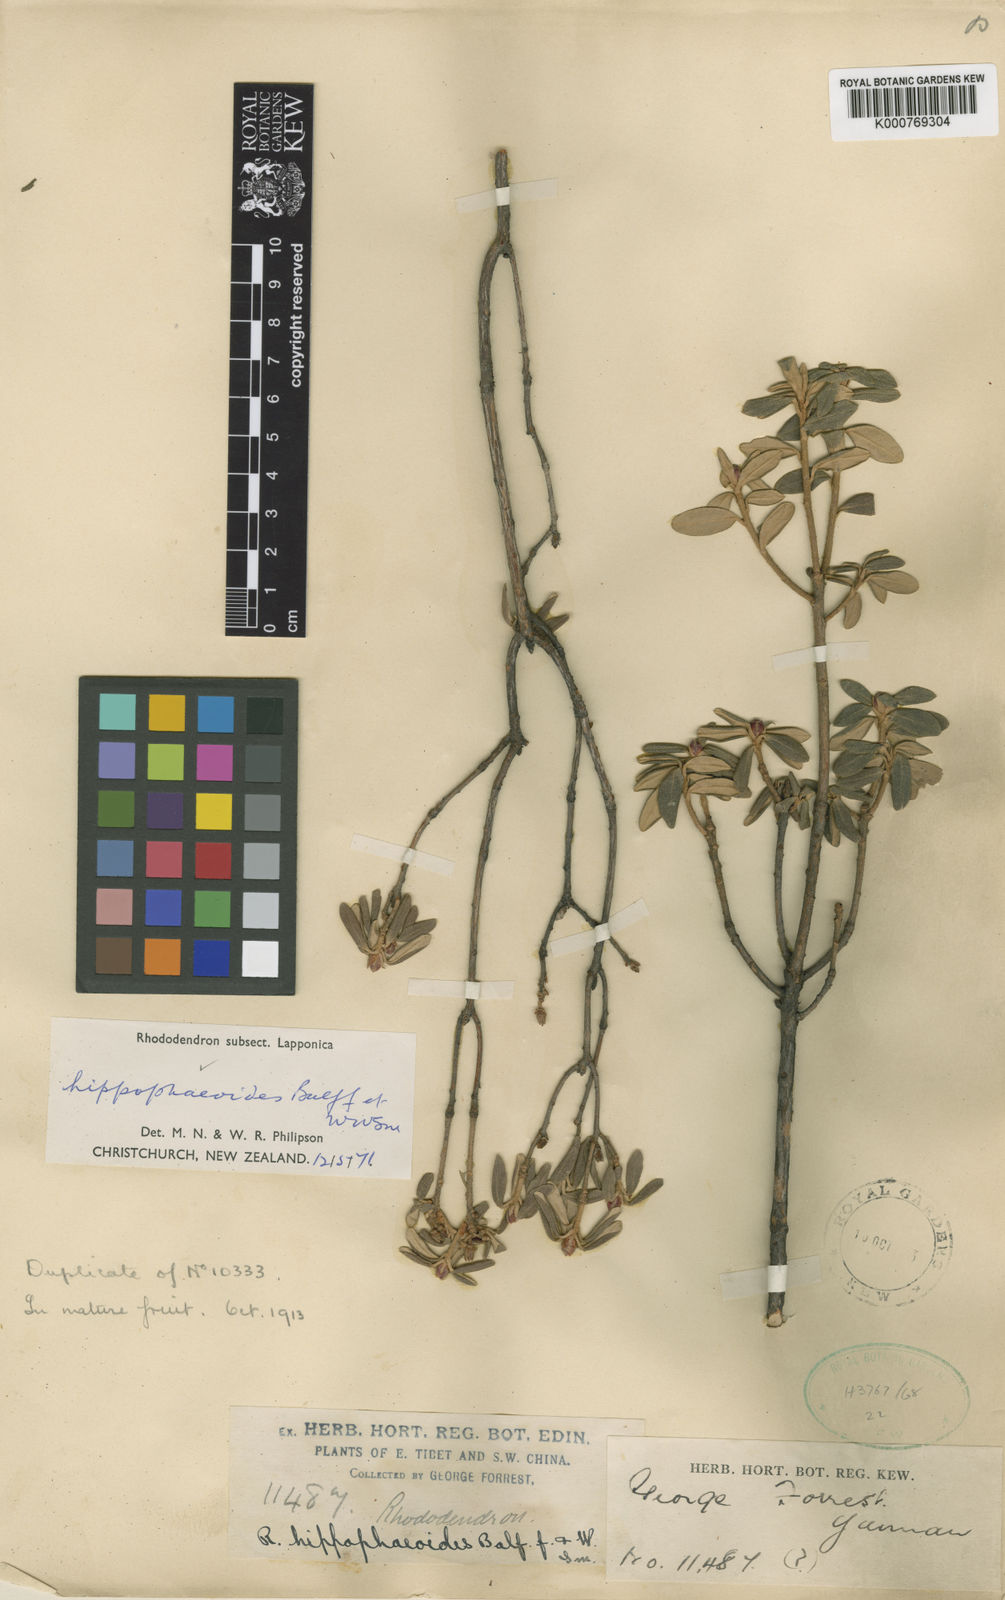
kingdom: Plantae
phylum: Tracheophyta
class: Magnoliopsida
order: Ericales
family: Ericaceae
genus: Rhododendron
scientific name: Rhododendron hippophaeoides
